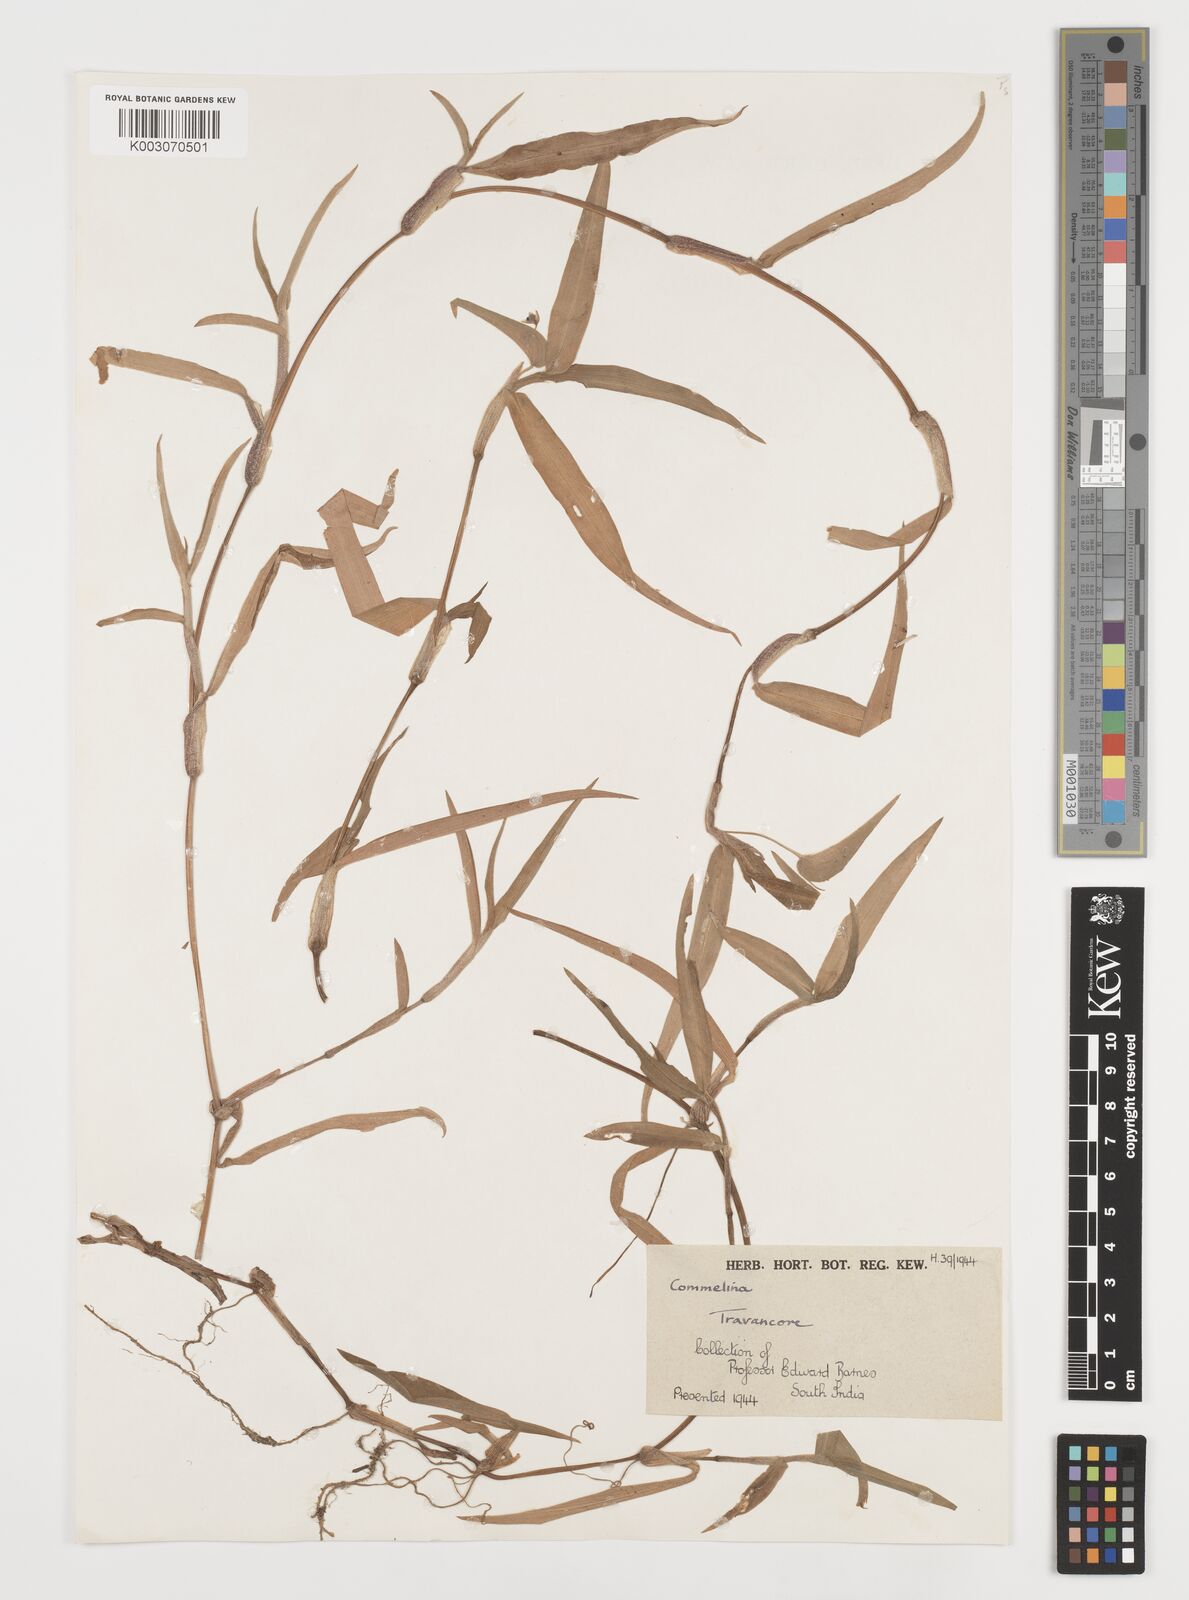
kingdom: Plantae
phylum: Tracheophyta
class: Liliopsida
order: Commelinales
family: Commelinaceae
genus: Commelina
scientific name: Commelina
